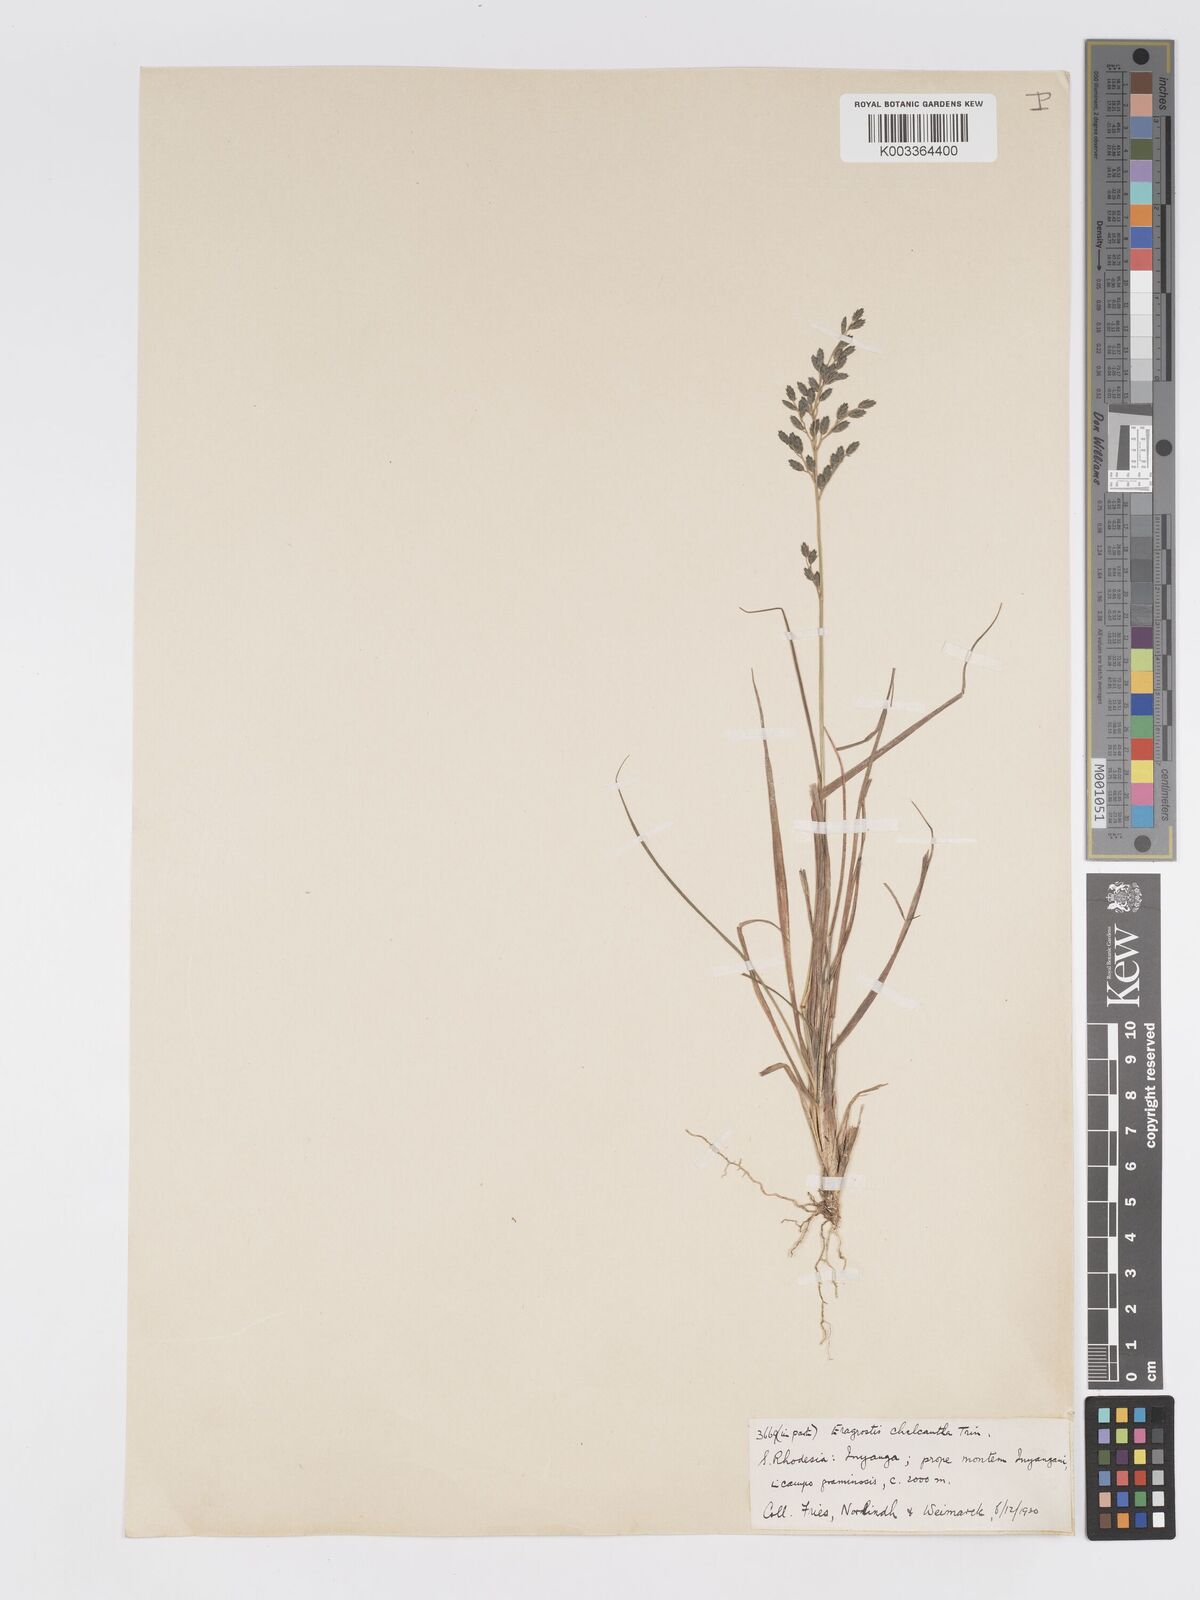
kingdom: Plantae
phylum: Tracheophyta
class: Liliopsida
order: Poales
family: Poaceae
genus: Eragrostis
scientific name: Eragrostis racemosa
